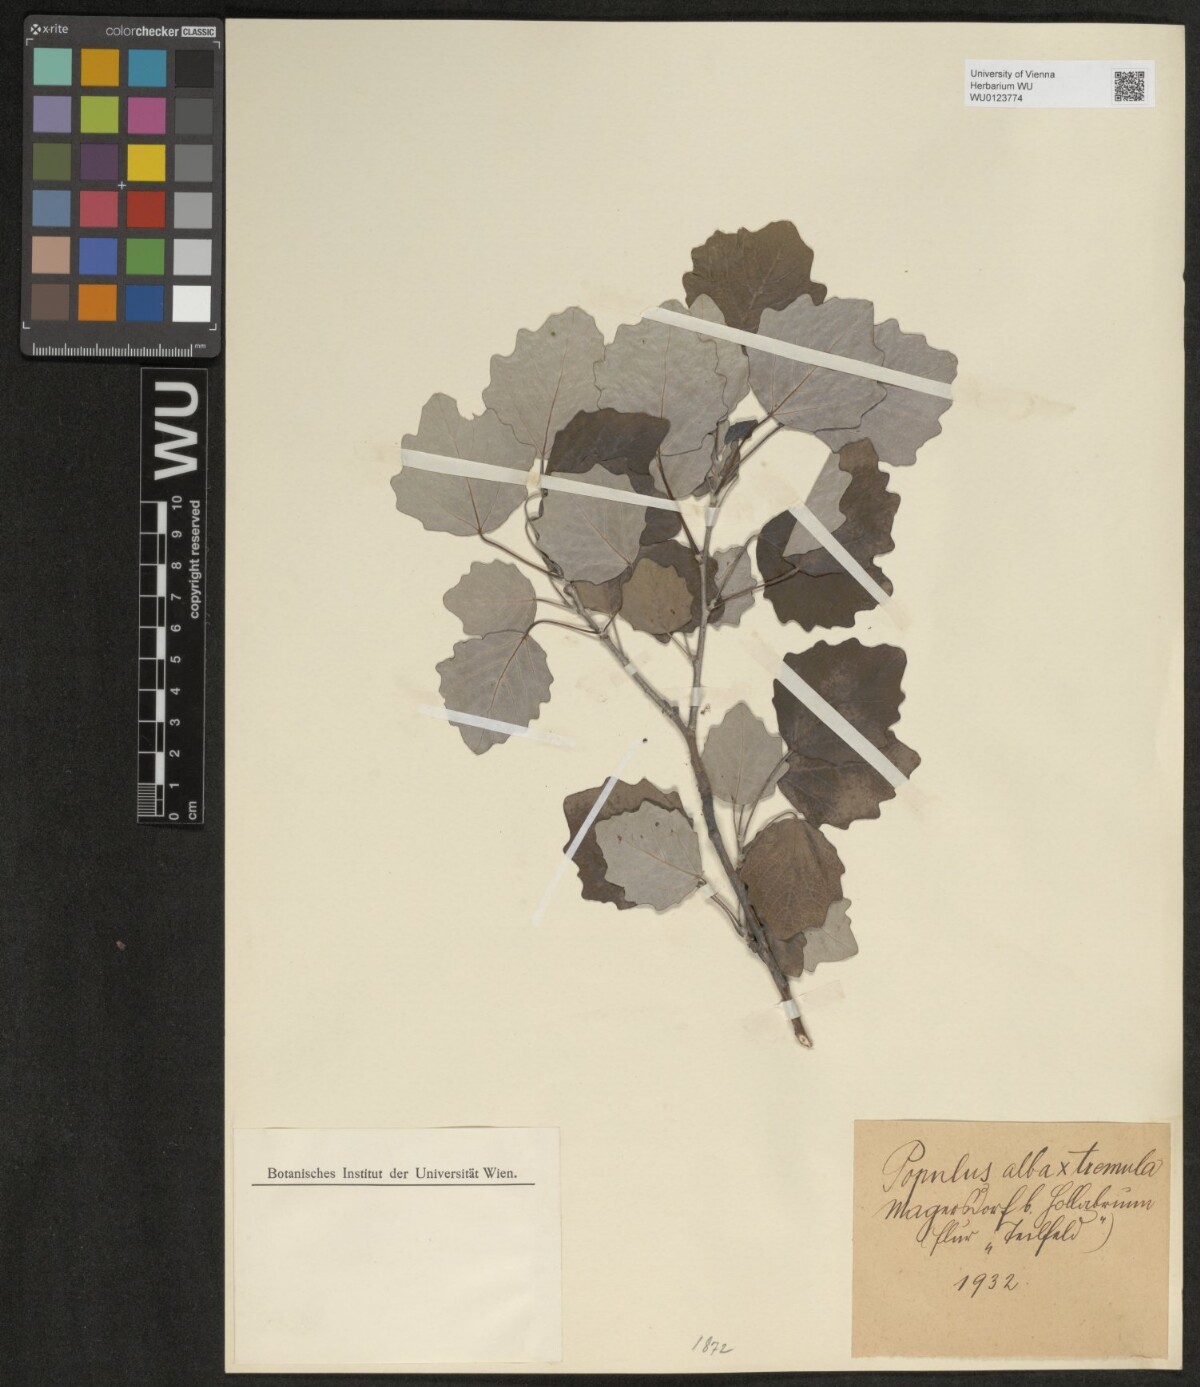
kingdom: Plantae
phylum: Tracheophyta
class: Magnoliopsida
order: Malpighiales
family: Salicaceae
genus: Populus
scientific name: Populus alba
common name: White poplar
